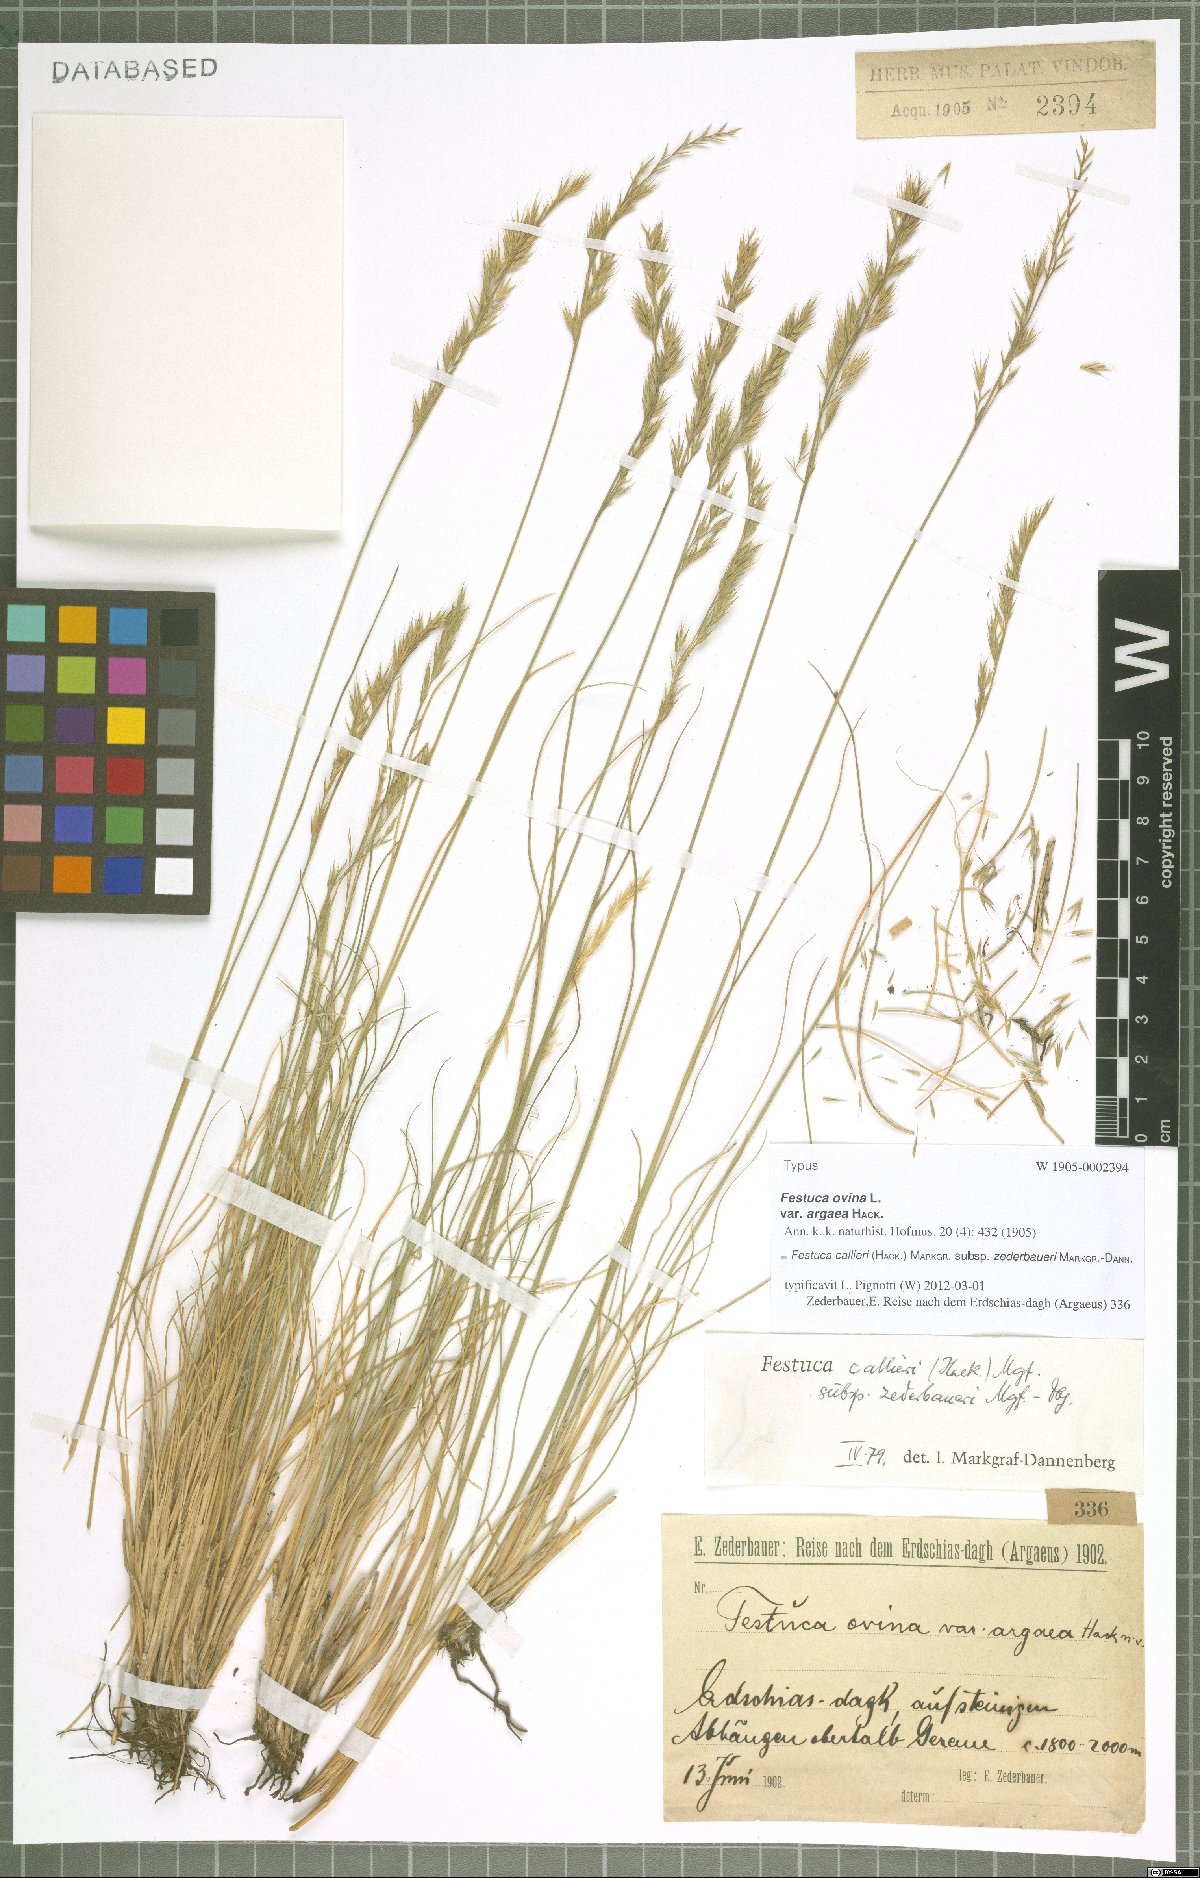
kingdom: Plantae
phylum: Tracheophyta
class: Liliopsida
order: Poales
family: Poaceae
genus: Festuca
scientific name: Festuca callieri
